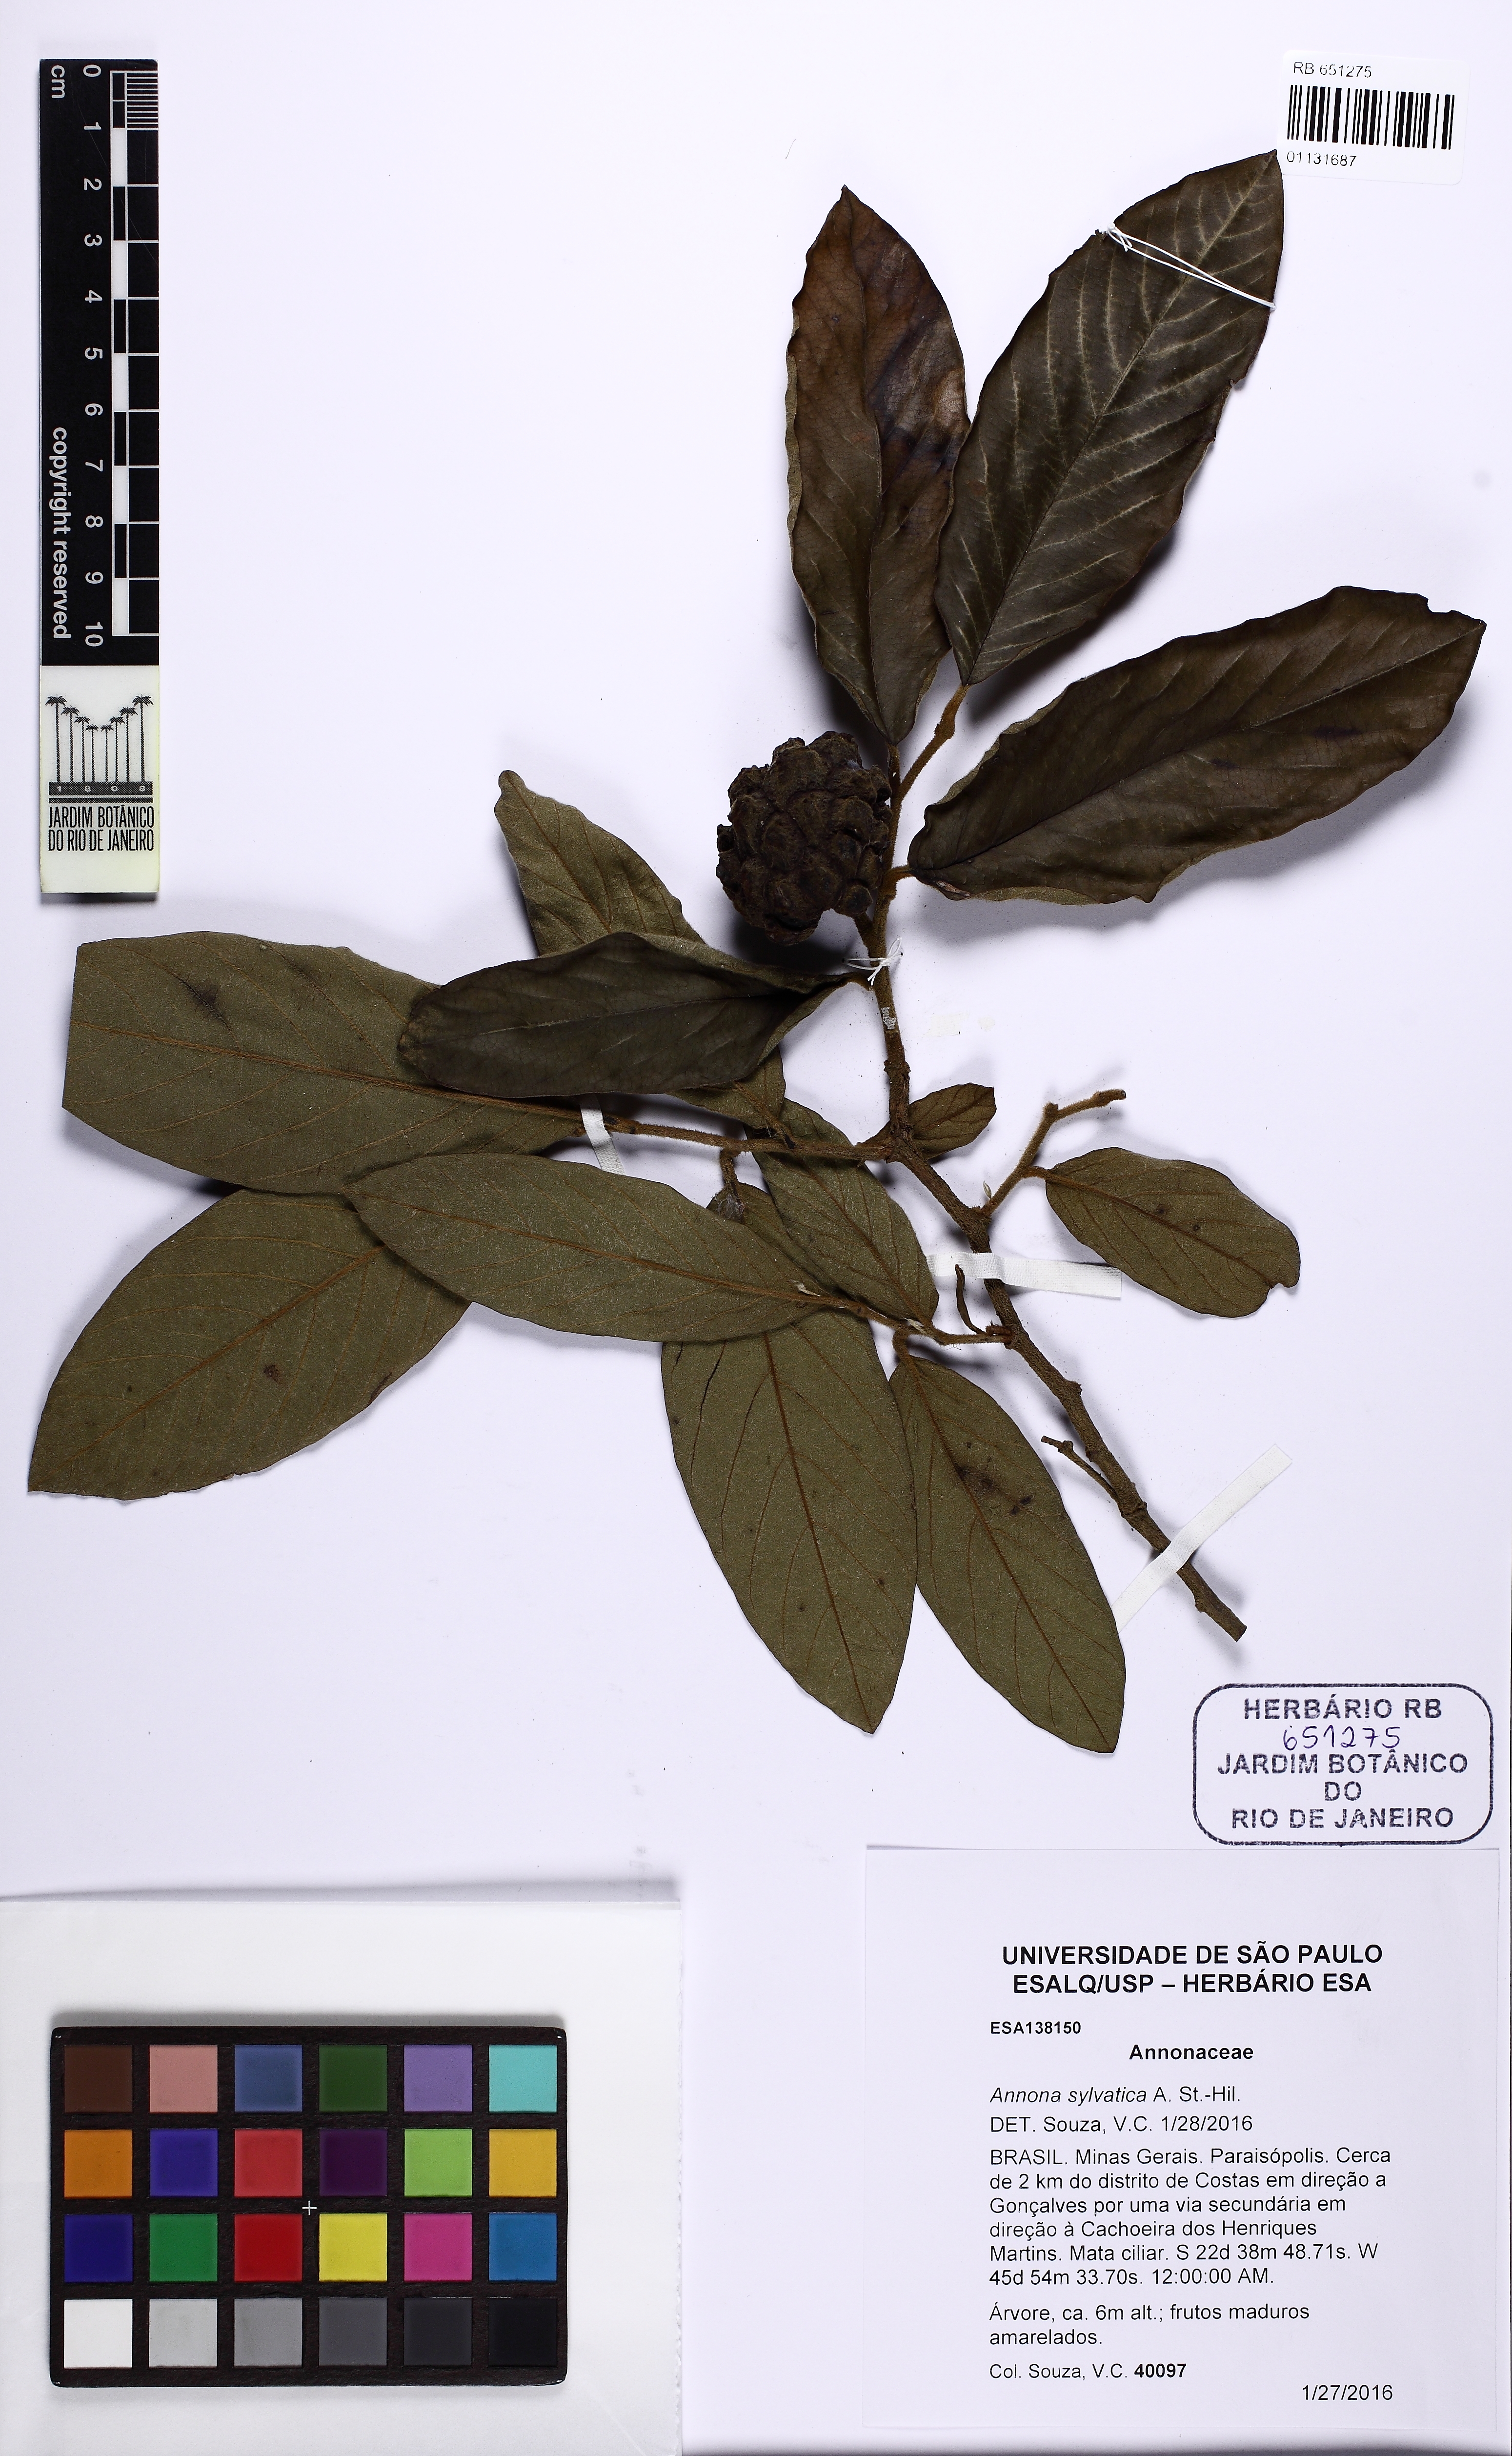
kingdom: Plantae
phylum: Tracheophyta
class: Magnoliopsida
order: Magnoliales
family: Annonaceae
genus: Annona
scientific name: Annona sylvatica
